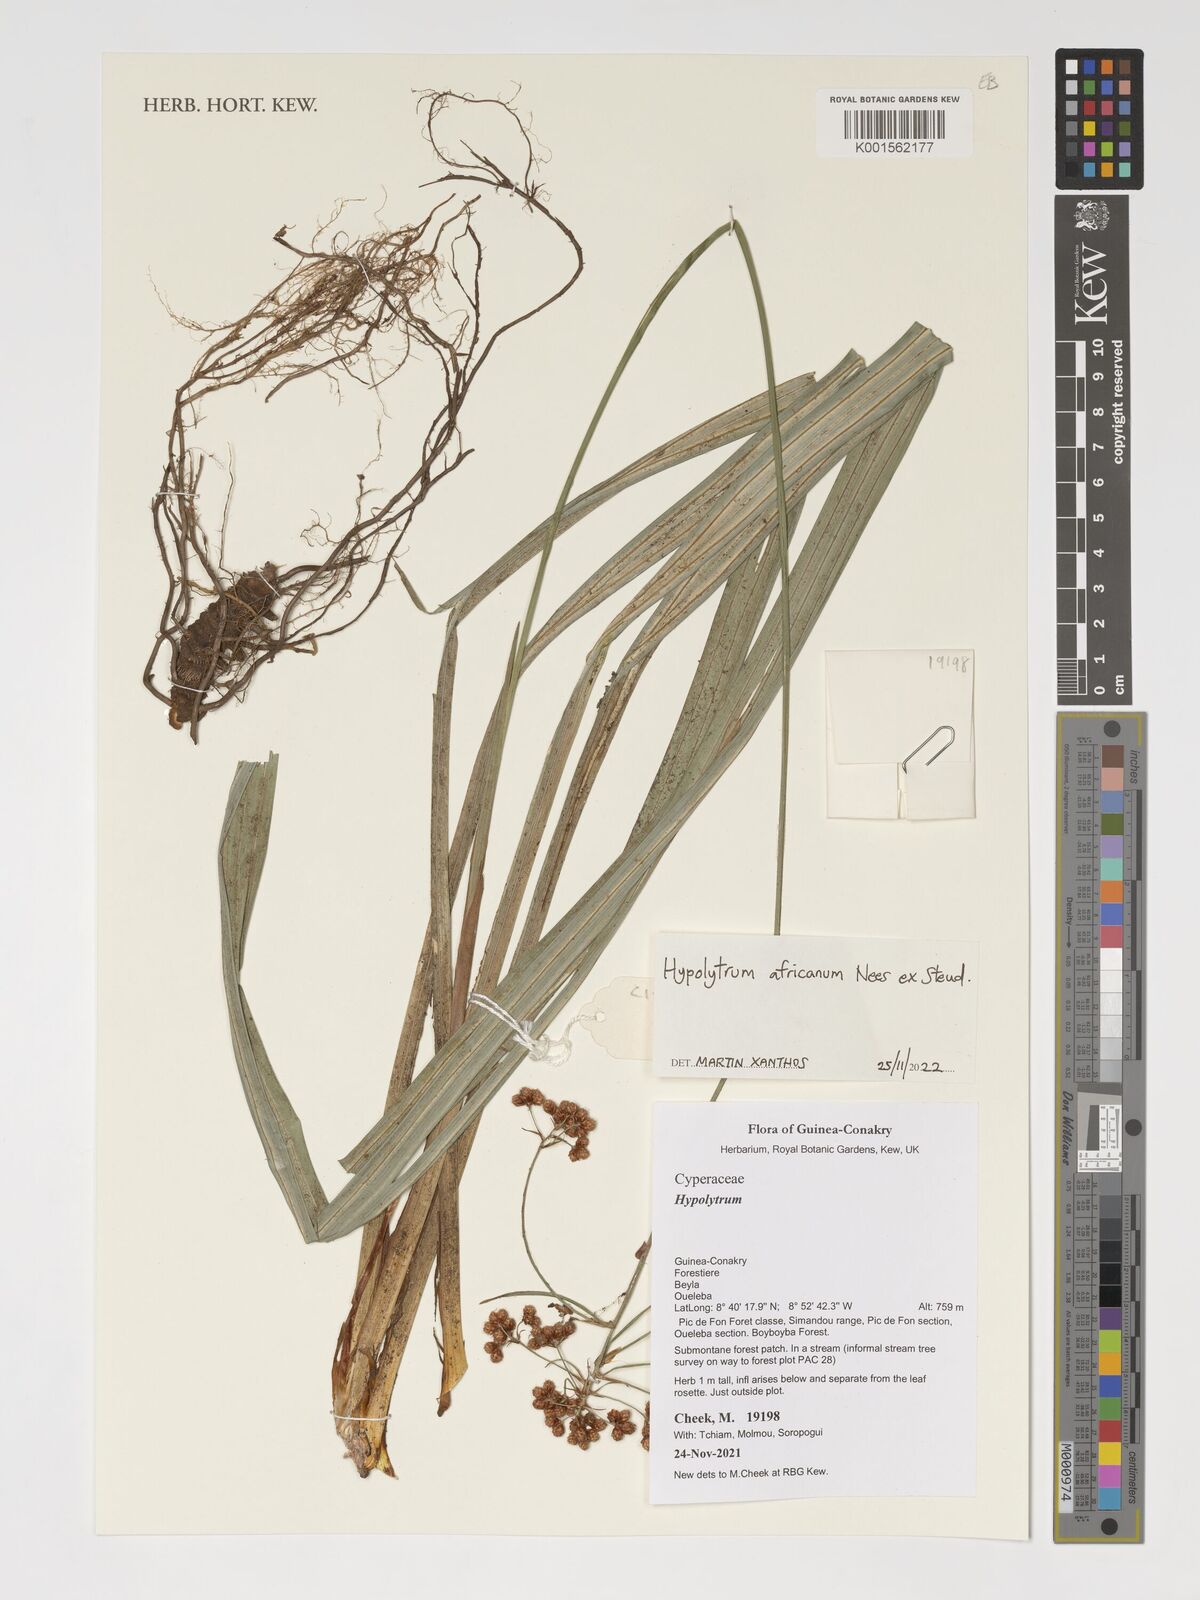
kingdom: Plantae
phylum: Tracheophyta
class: Liliopsida
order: Poales
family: Cyperaceae
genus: Hypolytrum
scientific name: Hypolytrum africanum
